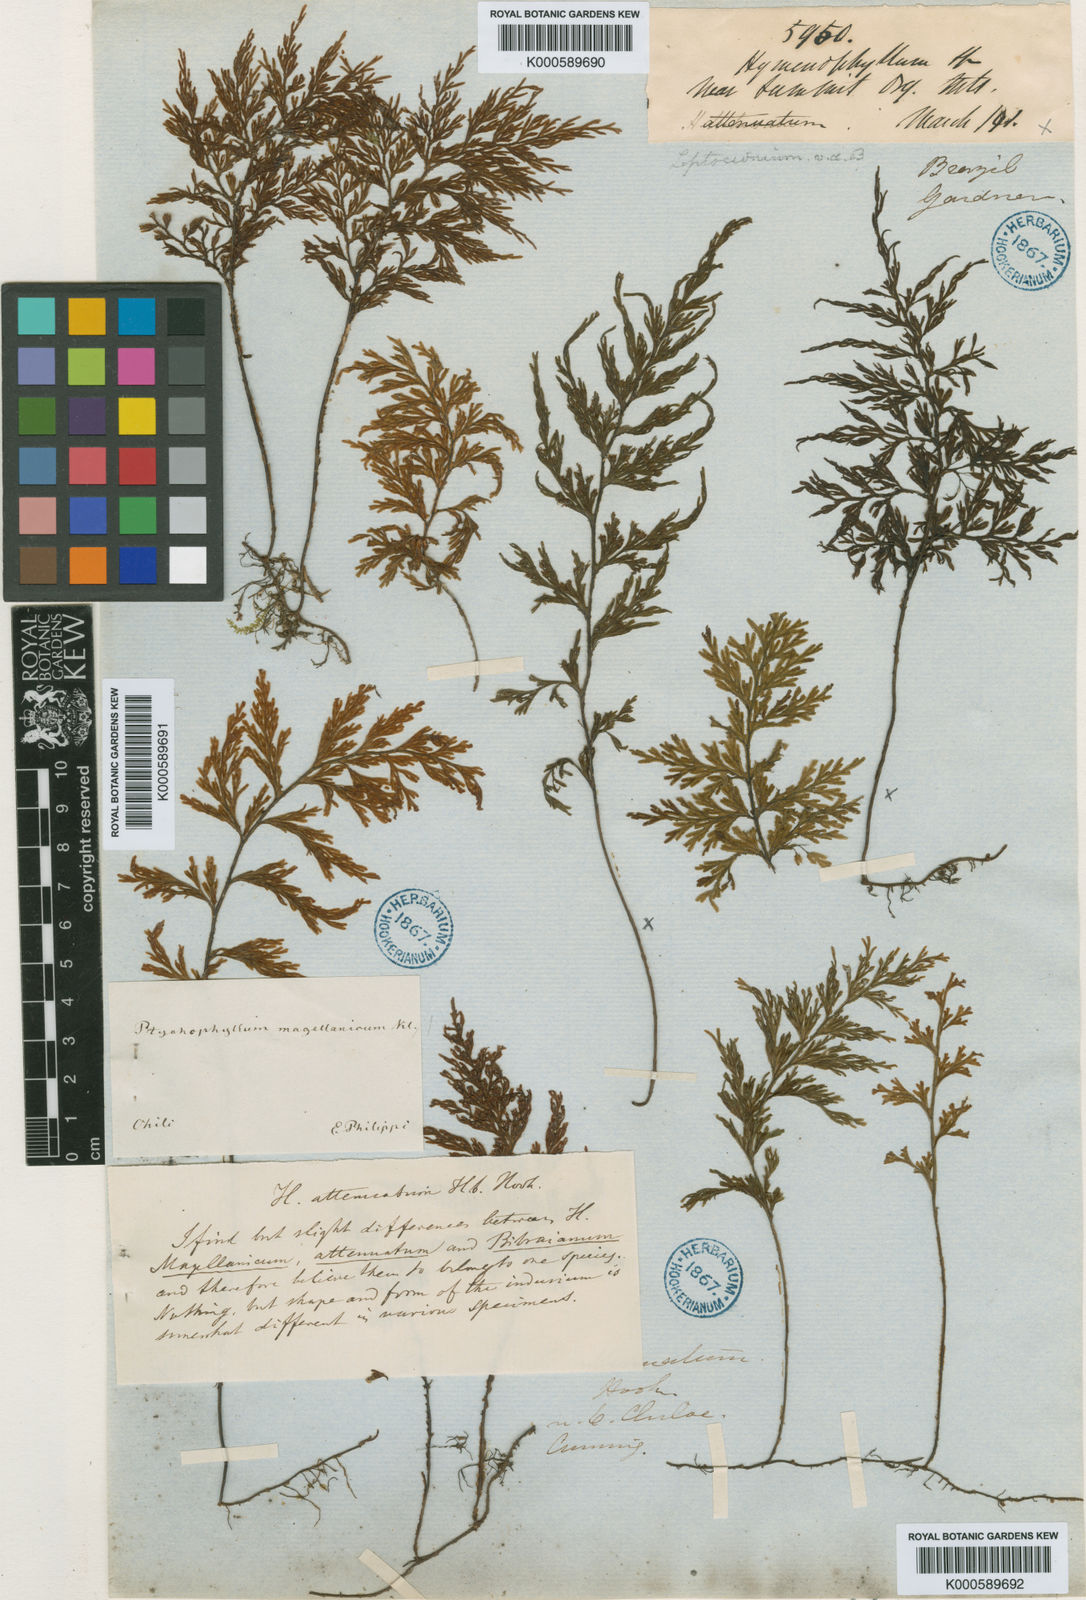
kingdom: Plantae
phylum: Tracheophyta
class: Polypodiopsida
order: Hymenophyllales
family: Hymenophyllaceae
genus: Hymenophyllum
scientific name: Hymenophyllum
